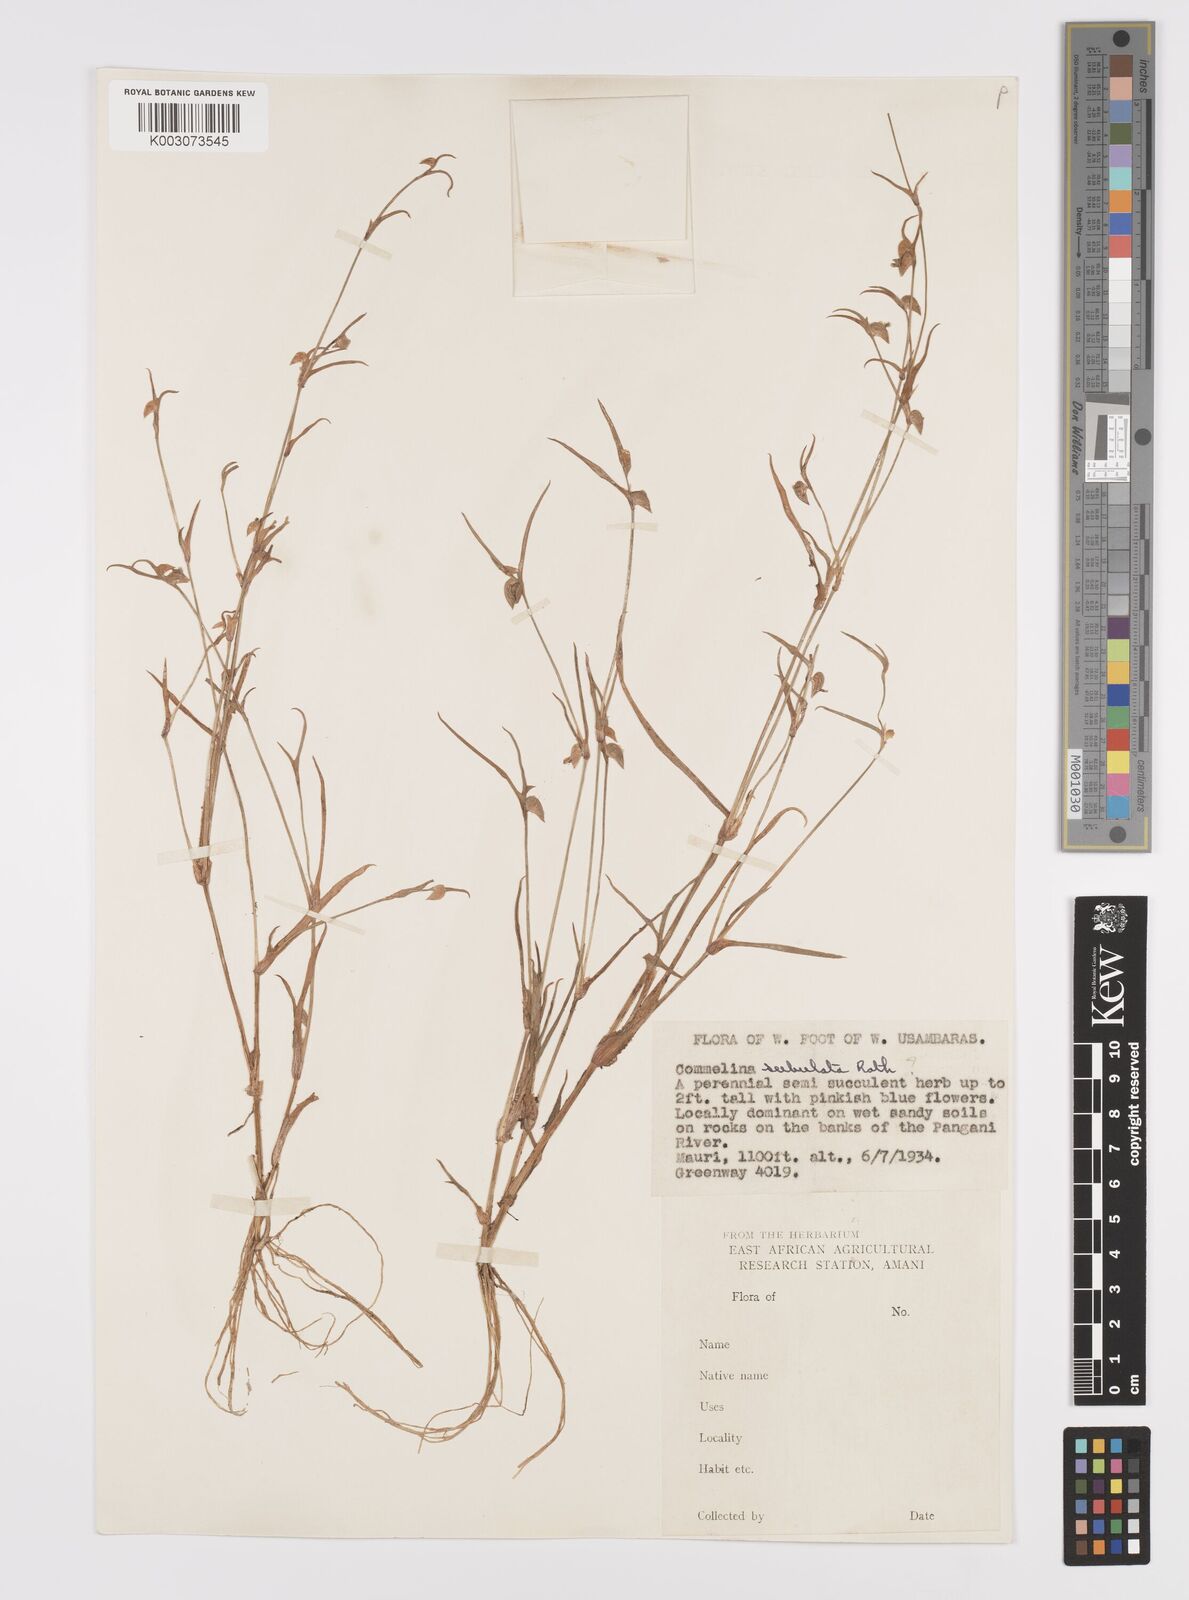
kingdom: Plantae
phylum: Tracheophyta
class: Liliopsida
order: Commelinales
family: Commelinaceae
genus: Commelina
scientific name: Commelina subulata
